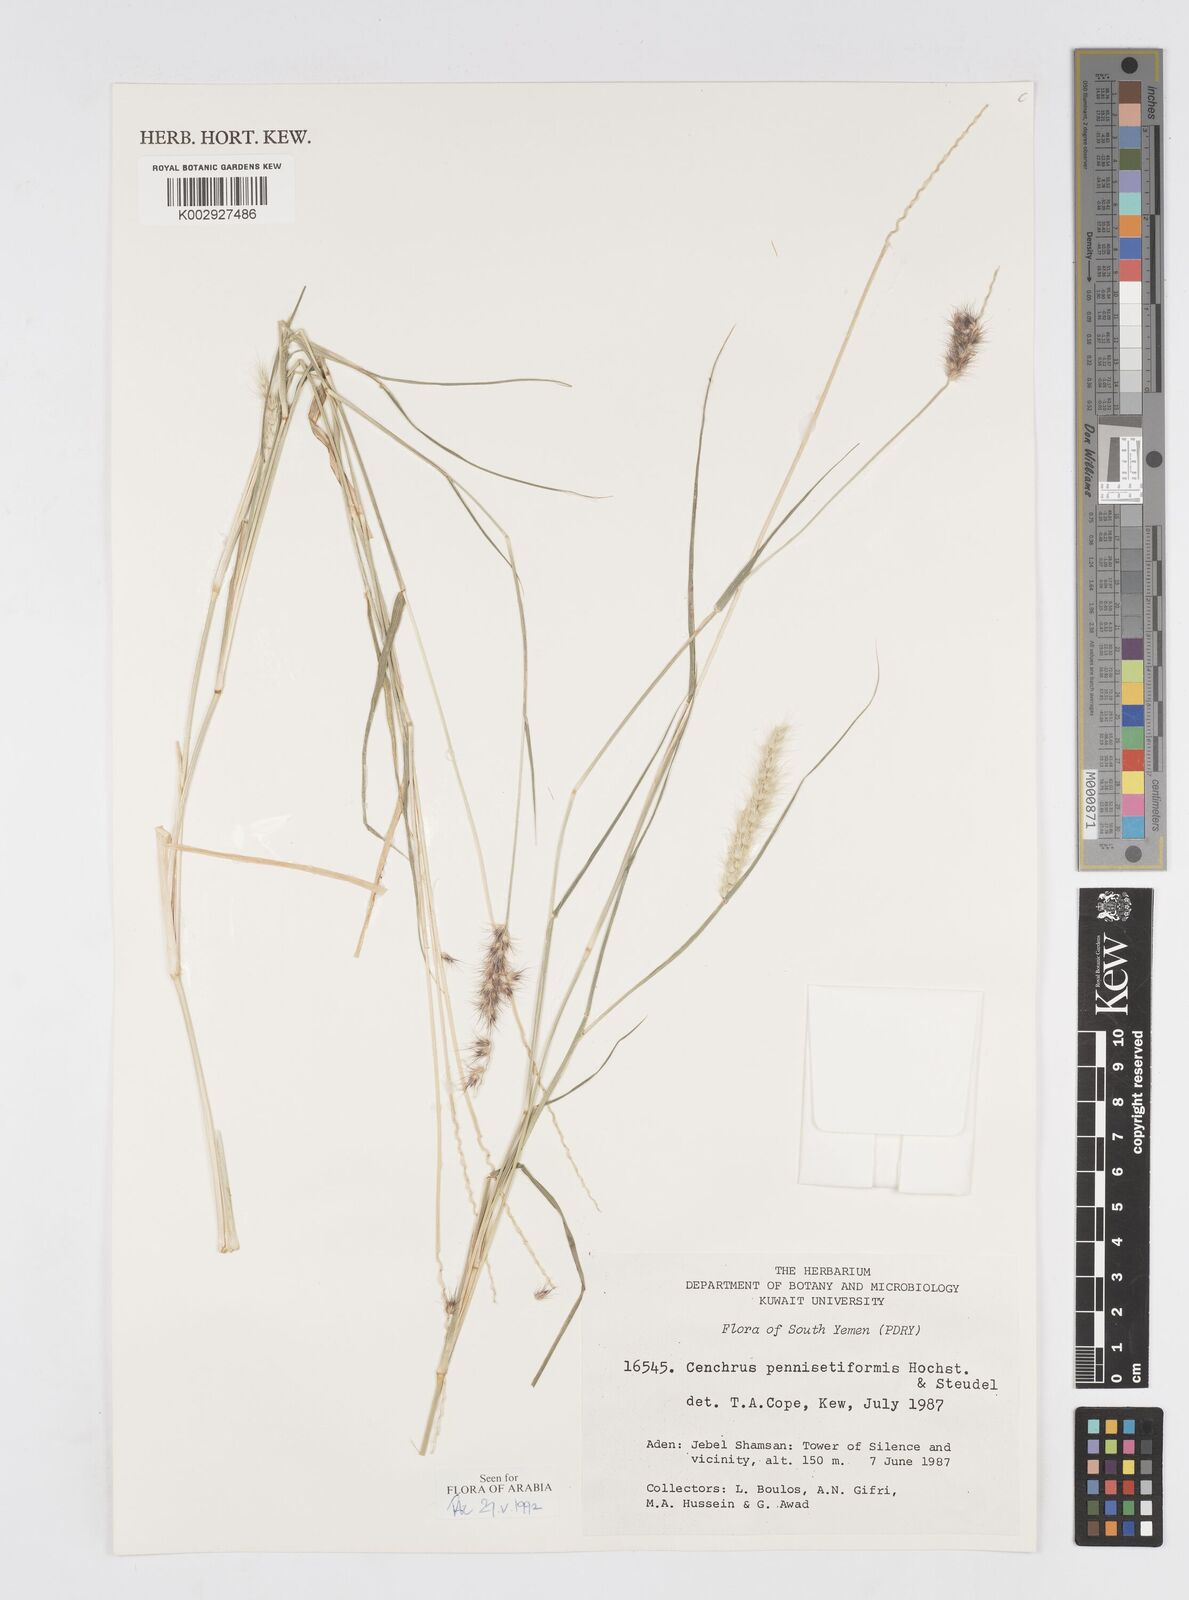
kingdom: Plantae
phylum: Tracheophyta
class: Liliopsida
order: Poales
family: Poaceae
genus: Cenchrus
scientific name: Cenchrus pennisetiformis
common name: Cloncurry
